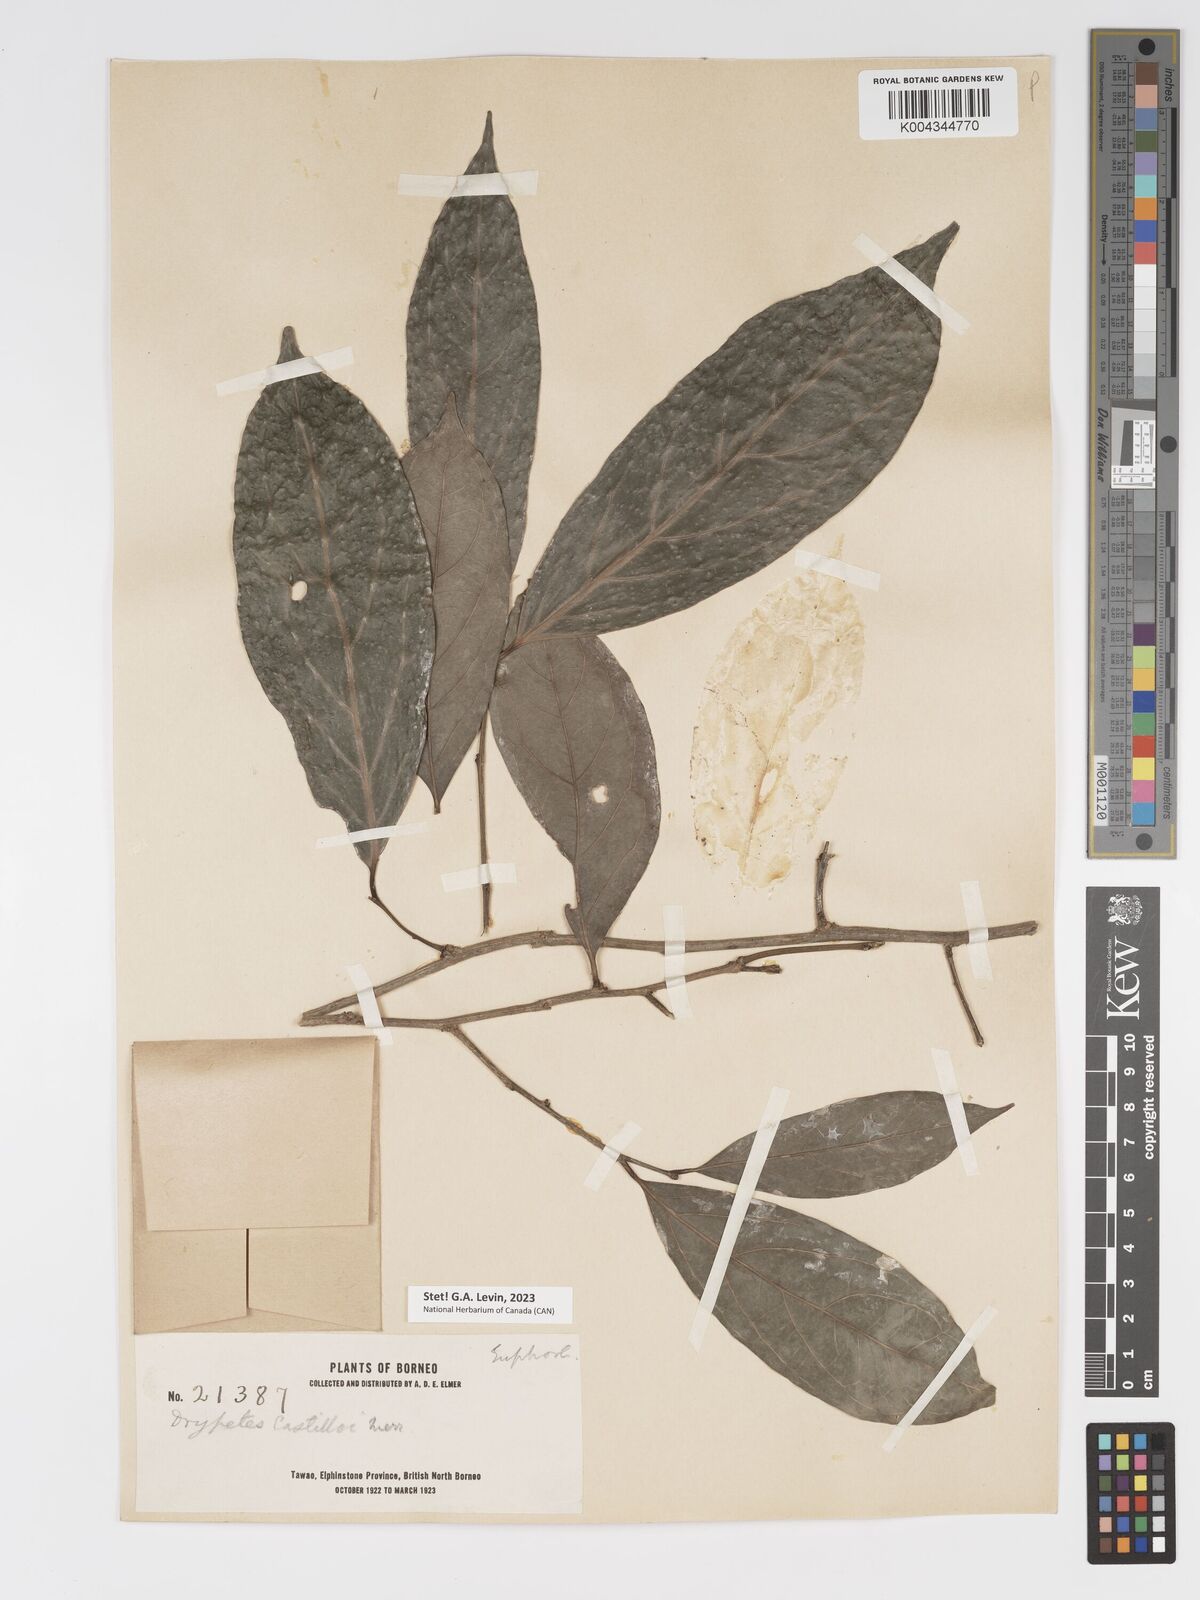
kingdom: Plantae
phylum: Tracheophyta
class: Magnoliopsida
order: Malpighiales
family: Putranjivaceae
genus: Drypetes
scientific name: Drypetes castilloi
